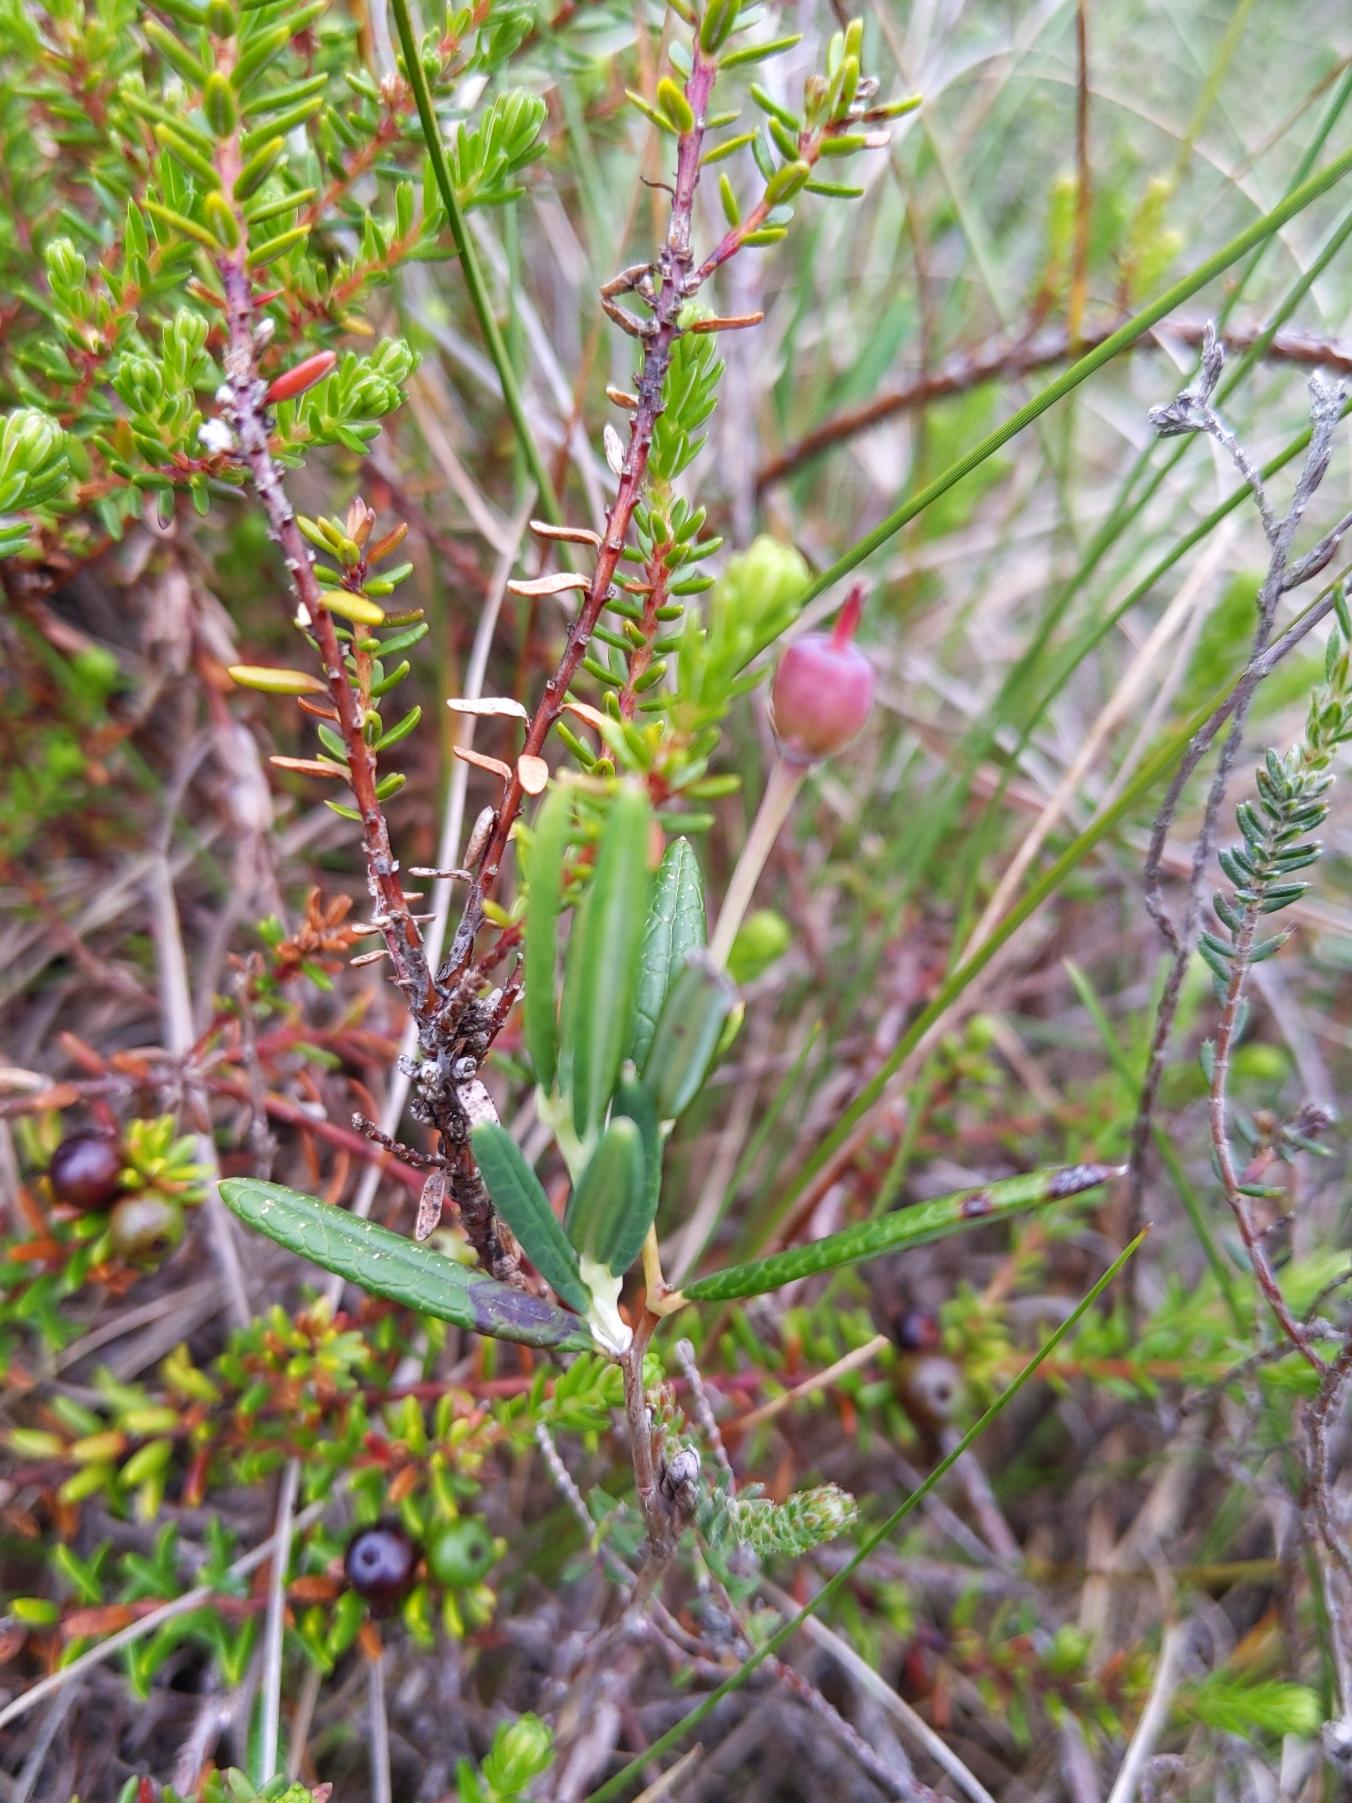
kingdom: Plantae
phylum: Tracheophyta
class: Magnoliopsida
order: Ericales
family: Ericaceae
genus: Andromeda
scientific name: Andromeda polifolia
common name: Rosmarinlyng
